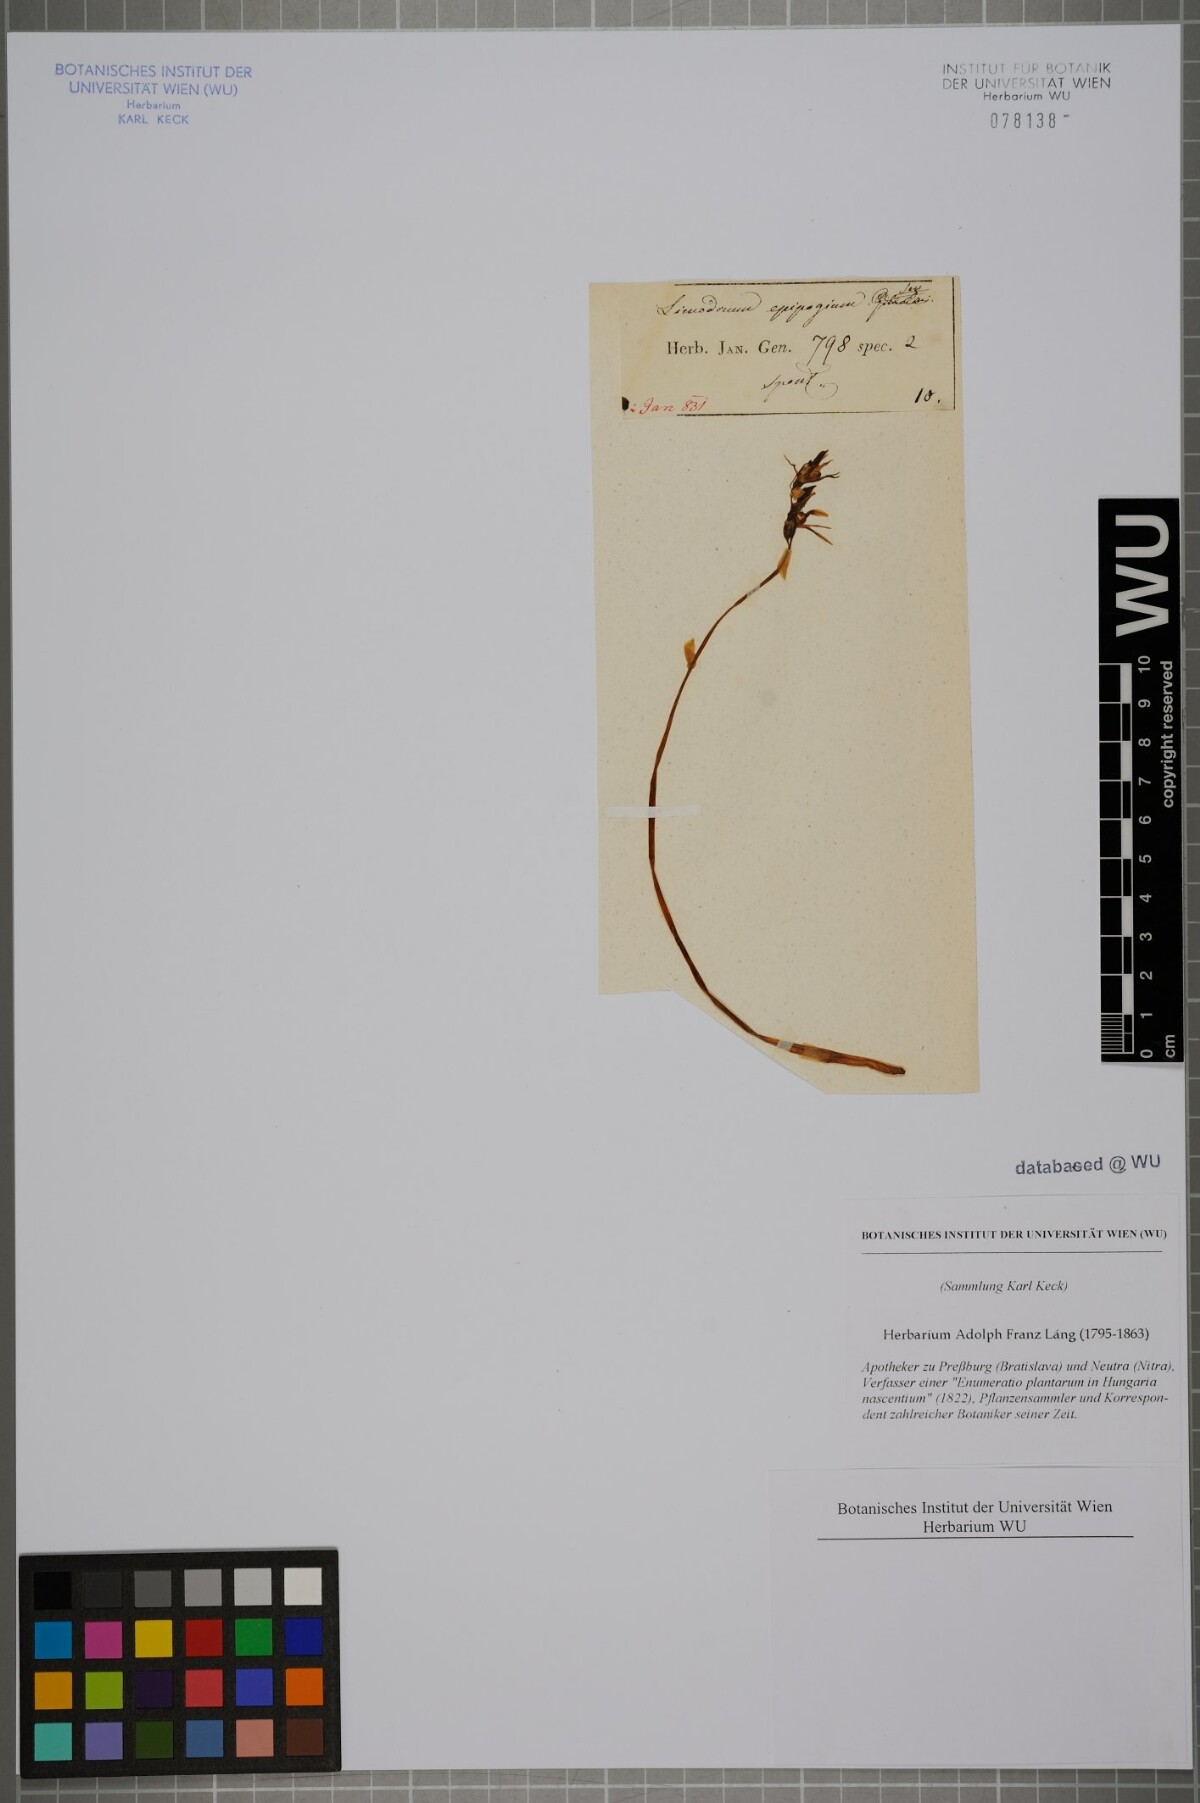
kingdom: Plantae
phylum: Tracheophyta
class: Liliopsida
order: Asparagales
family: Orchidaceae
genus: Epipogium
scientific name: Epipogium aphyllum
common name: Ghost orchid
